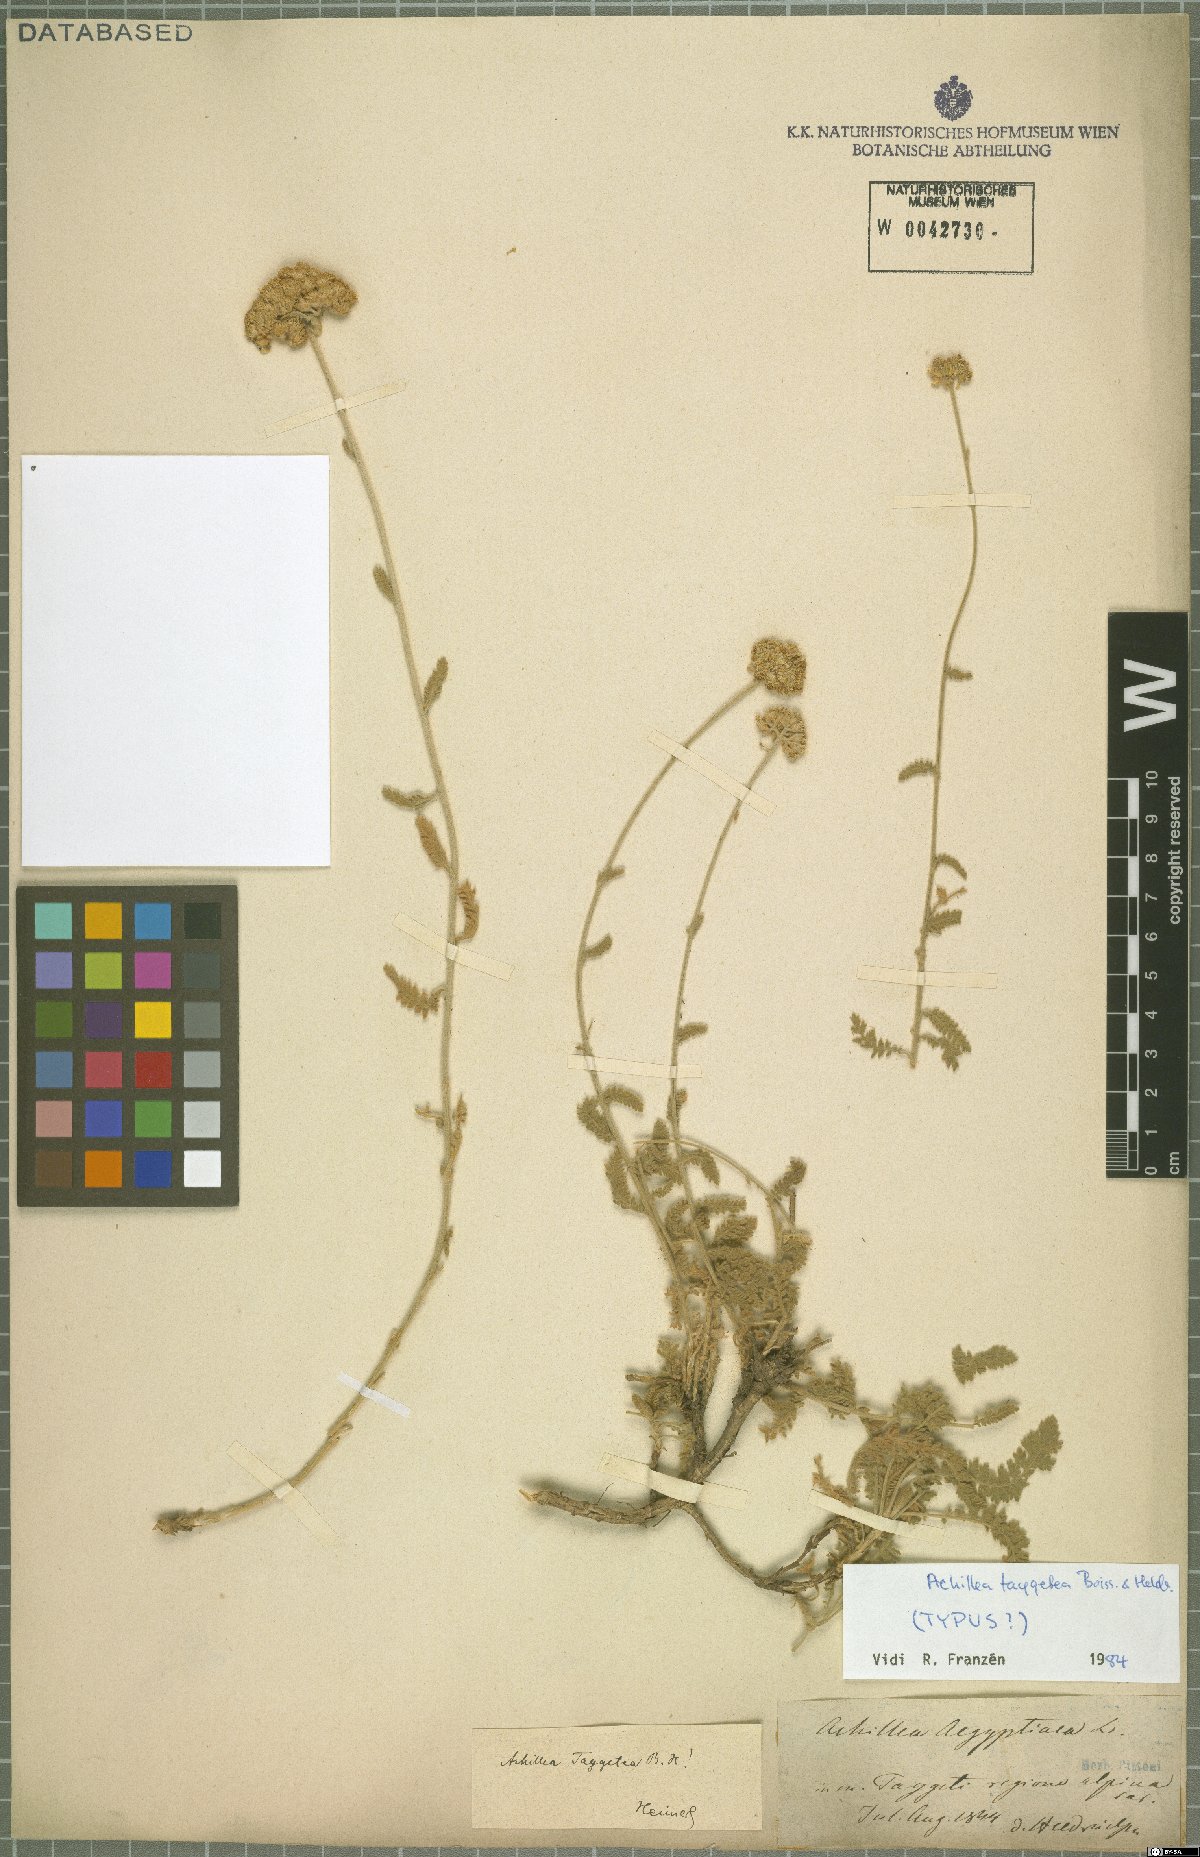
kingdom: Plantae
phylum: Tracheophyta
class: Magnoliopsida
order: Asterales
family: Asteraceae
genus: Achillea
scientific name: Achillea taygetea
